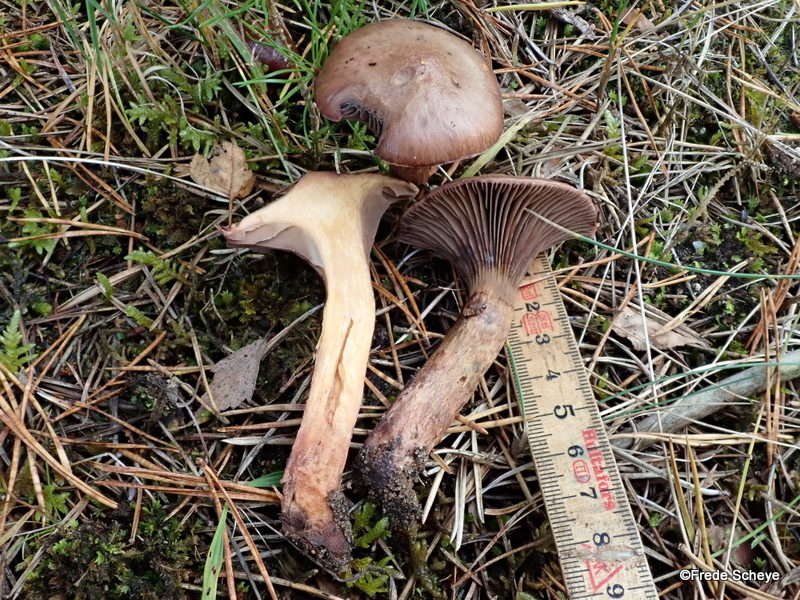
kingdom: Fungi
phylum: Basidiomycota
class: Agaricomycetes
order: Boletales
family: Gomphidiaceae
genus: Chroogomphus
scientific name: Chroogomphus rutilus
